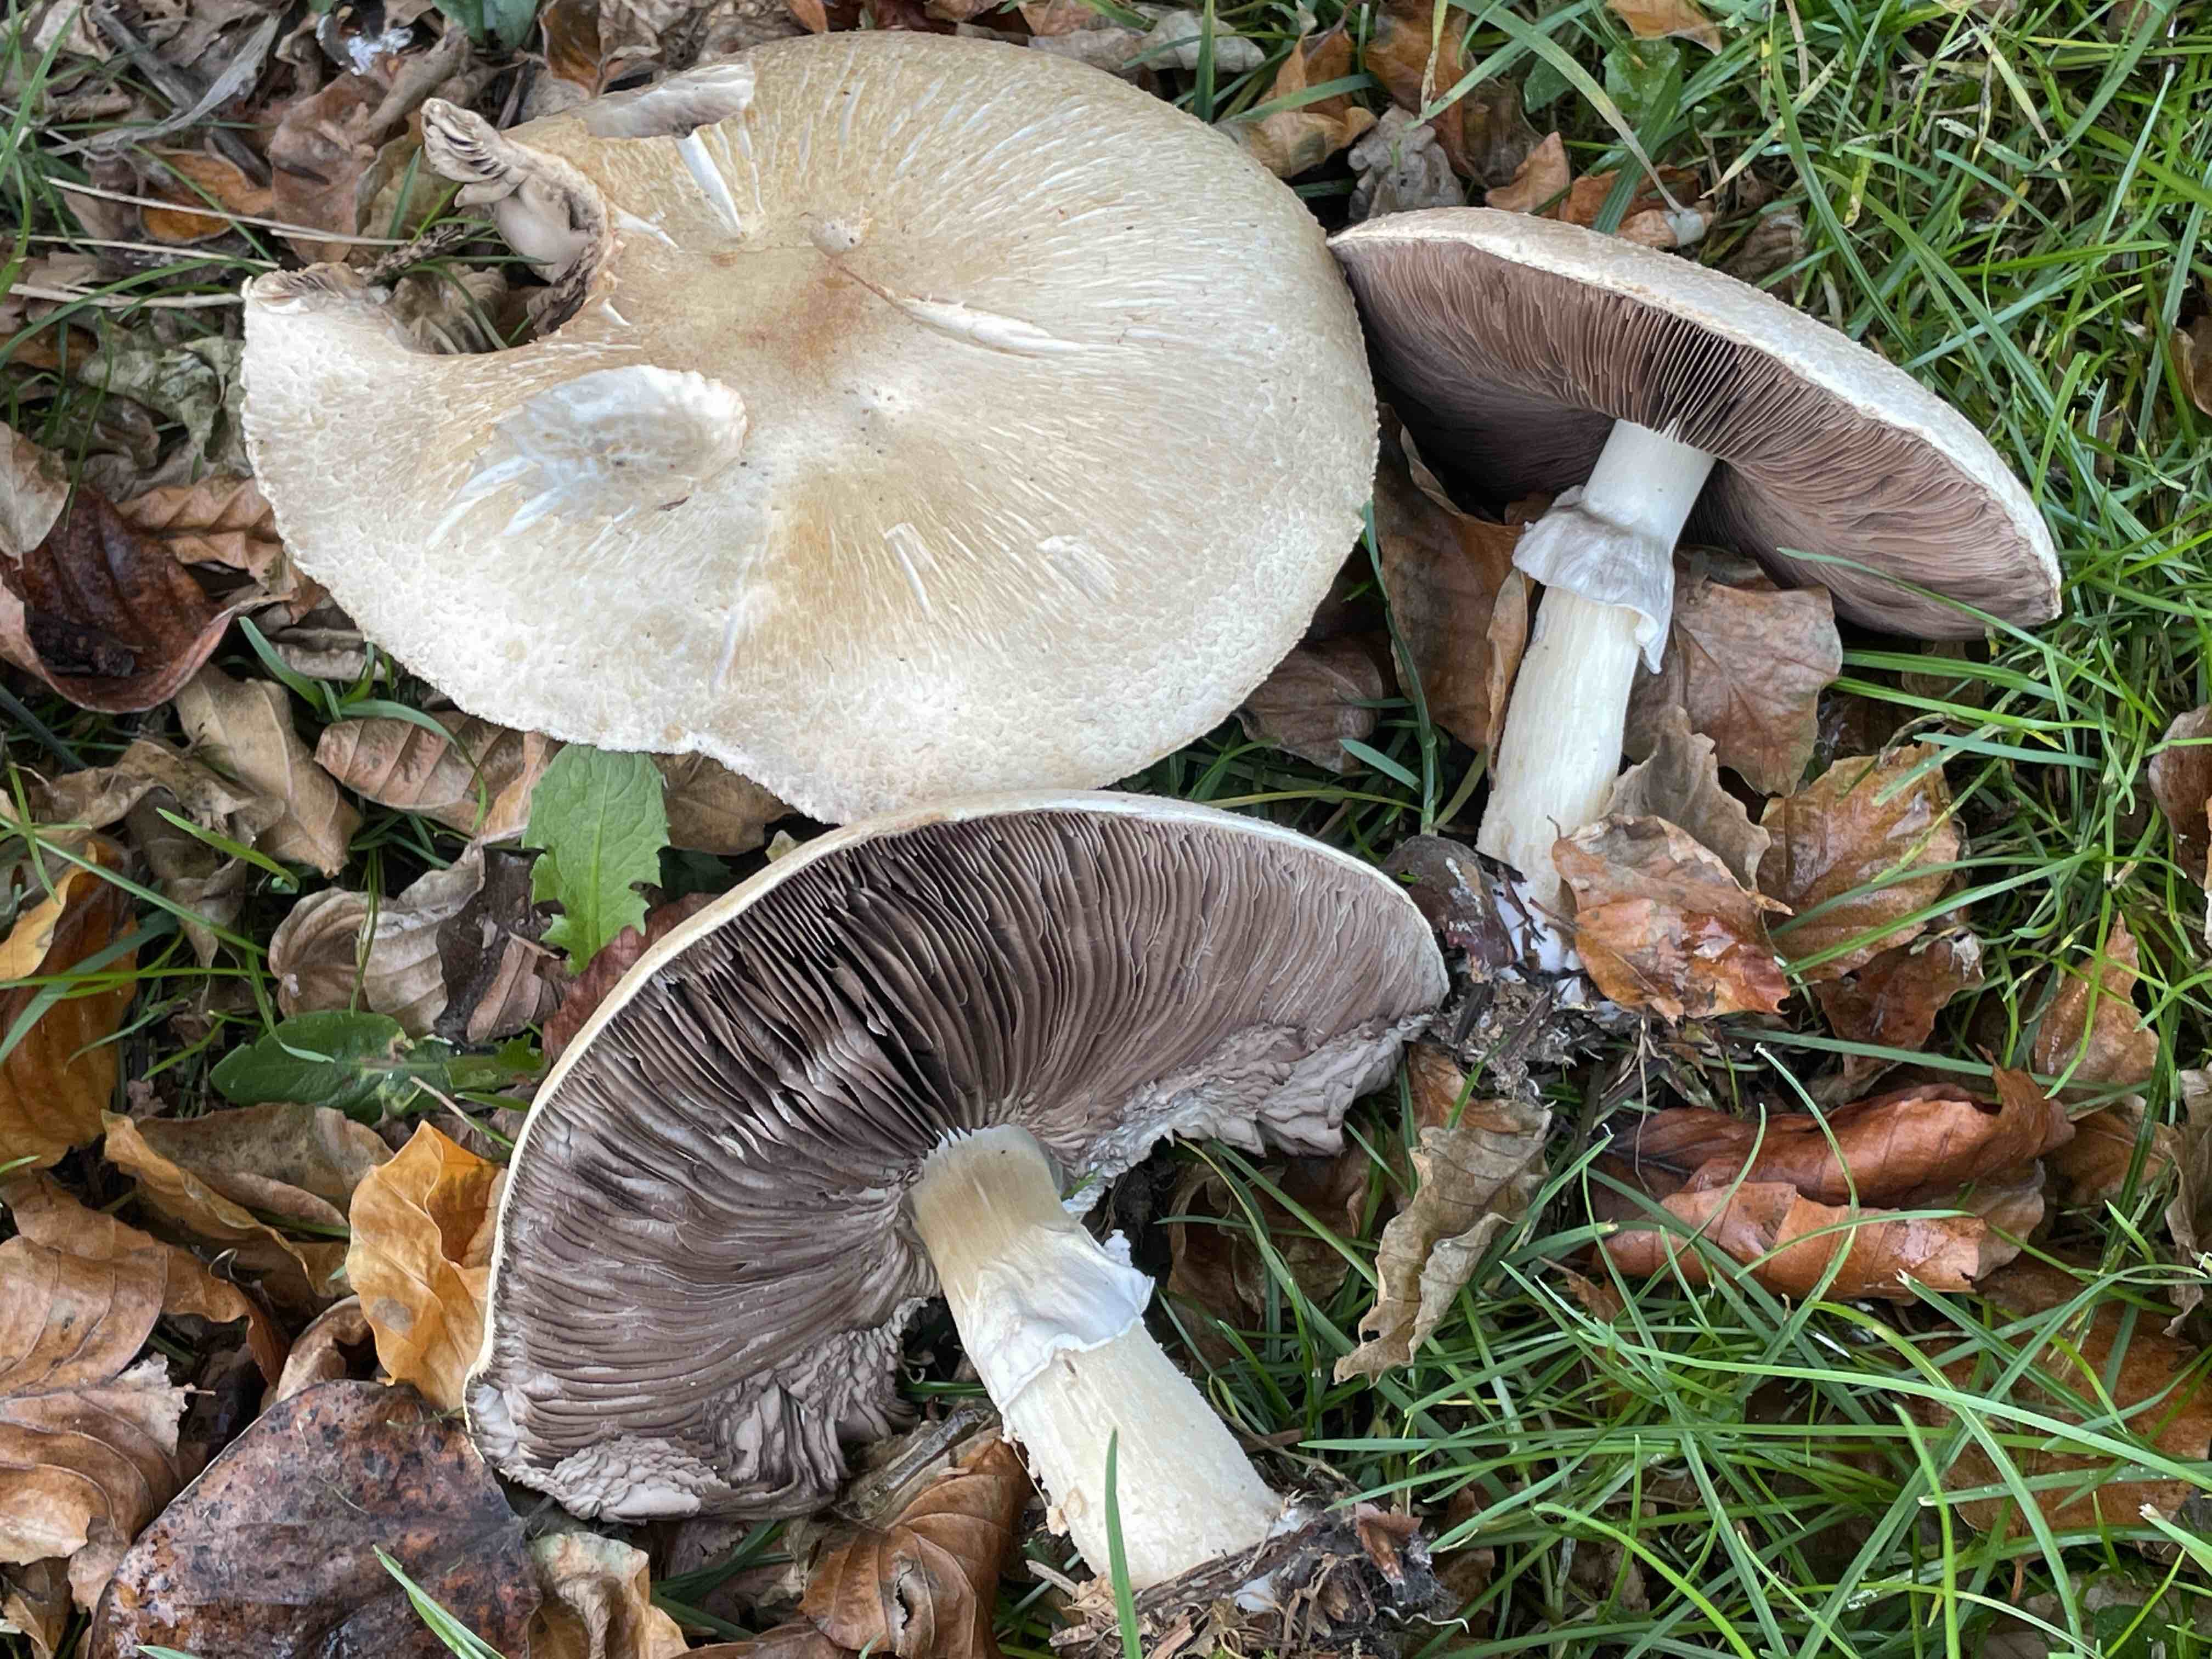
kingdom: Fungi
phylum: Basidiomycota
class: Agaricomycetes
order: Agaricales
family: Agaricaceae
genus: Agaricus
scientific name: Agaricus xanthodermus
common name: karbol-champignon
